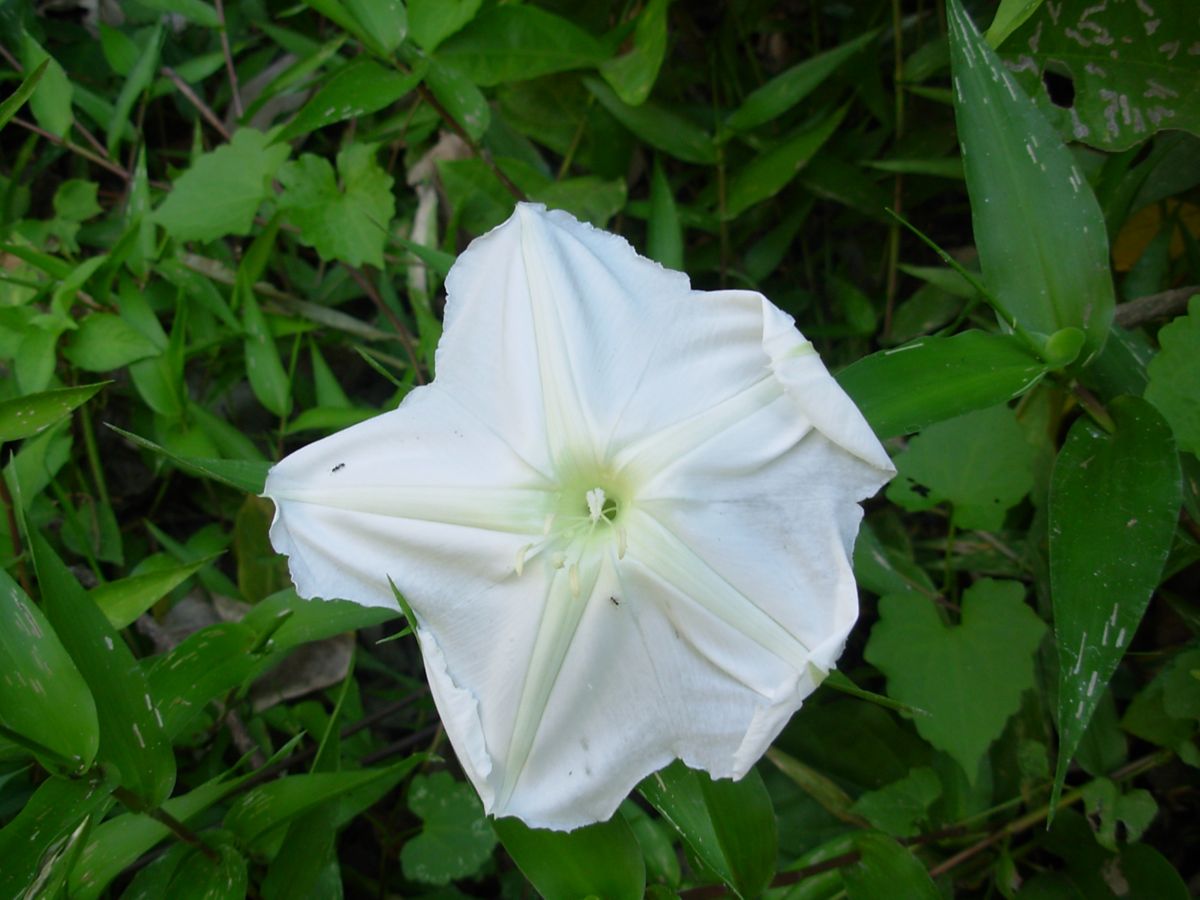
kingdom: Plantae
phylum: Tracheophyta
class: Magnoliopsida
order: Solanales
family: Convolvulaceae
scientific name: Convolvulaceae
